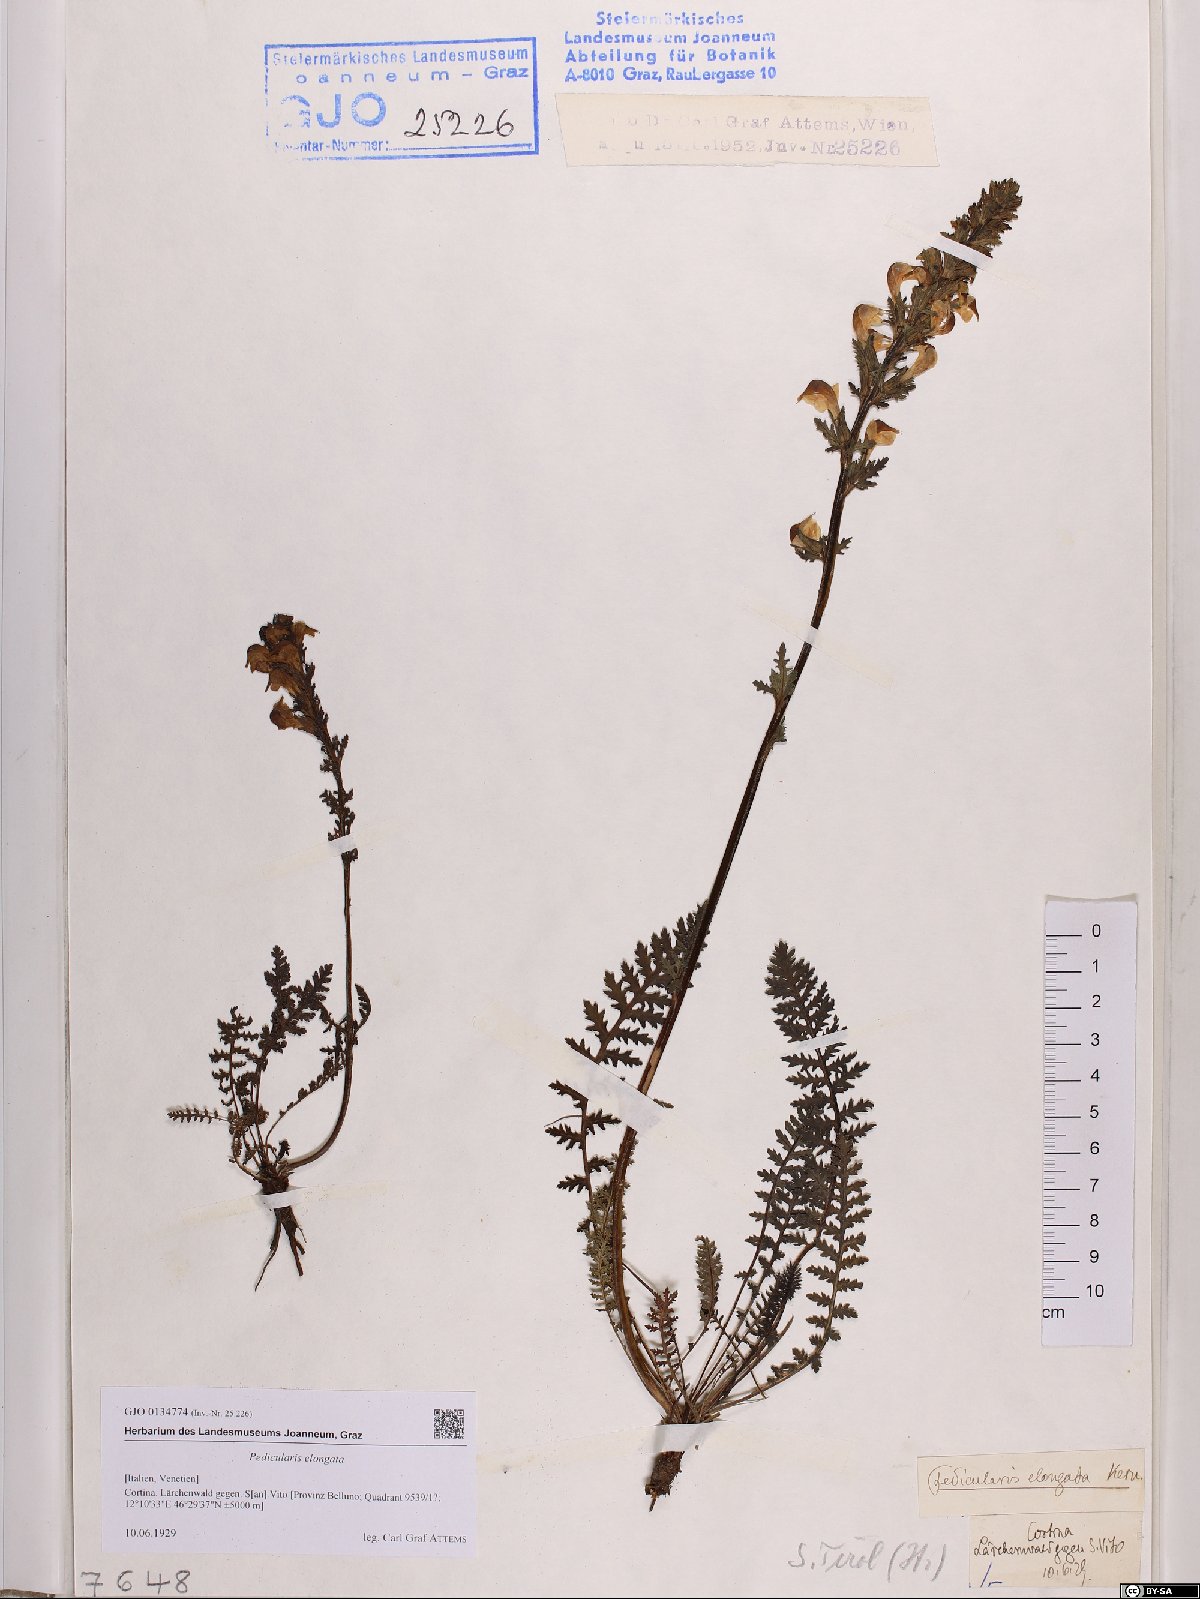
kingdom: Plantae
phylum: Tracheophyta
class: Magnoliopsida
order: Lamiales
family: Orobanchaceae
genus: Pedicularis
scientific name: Pedicularis elongata
